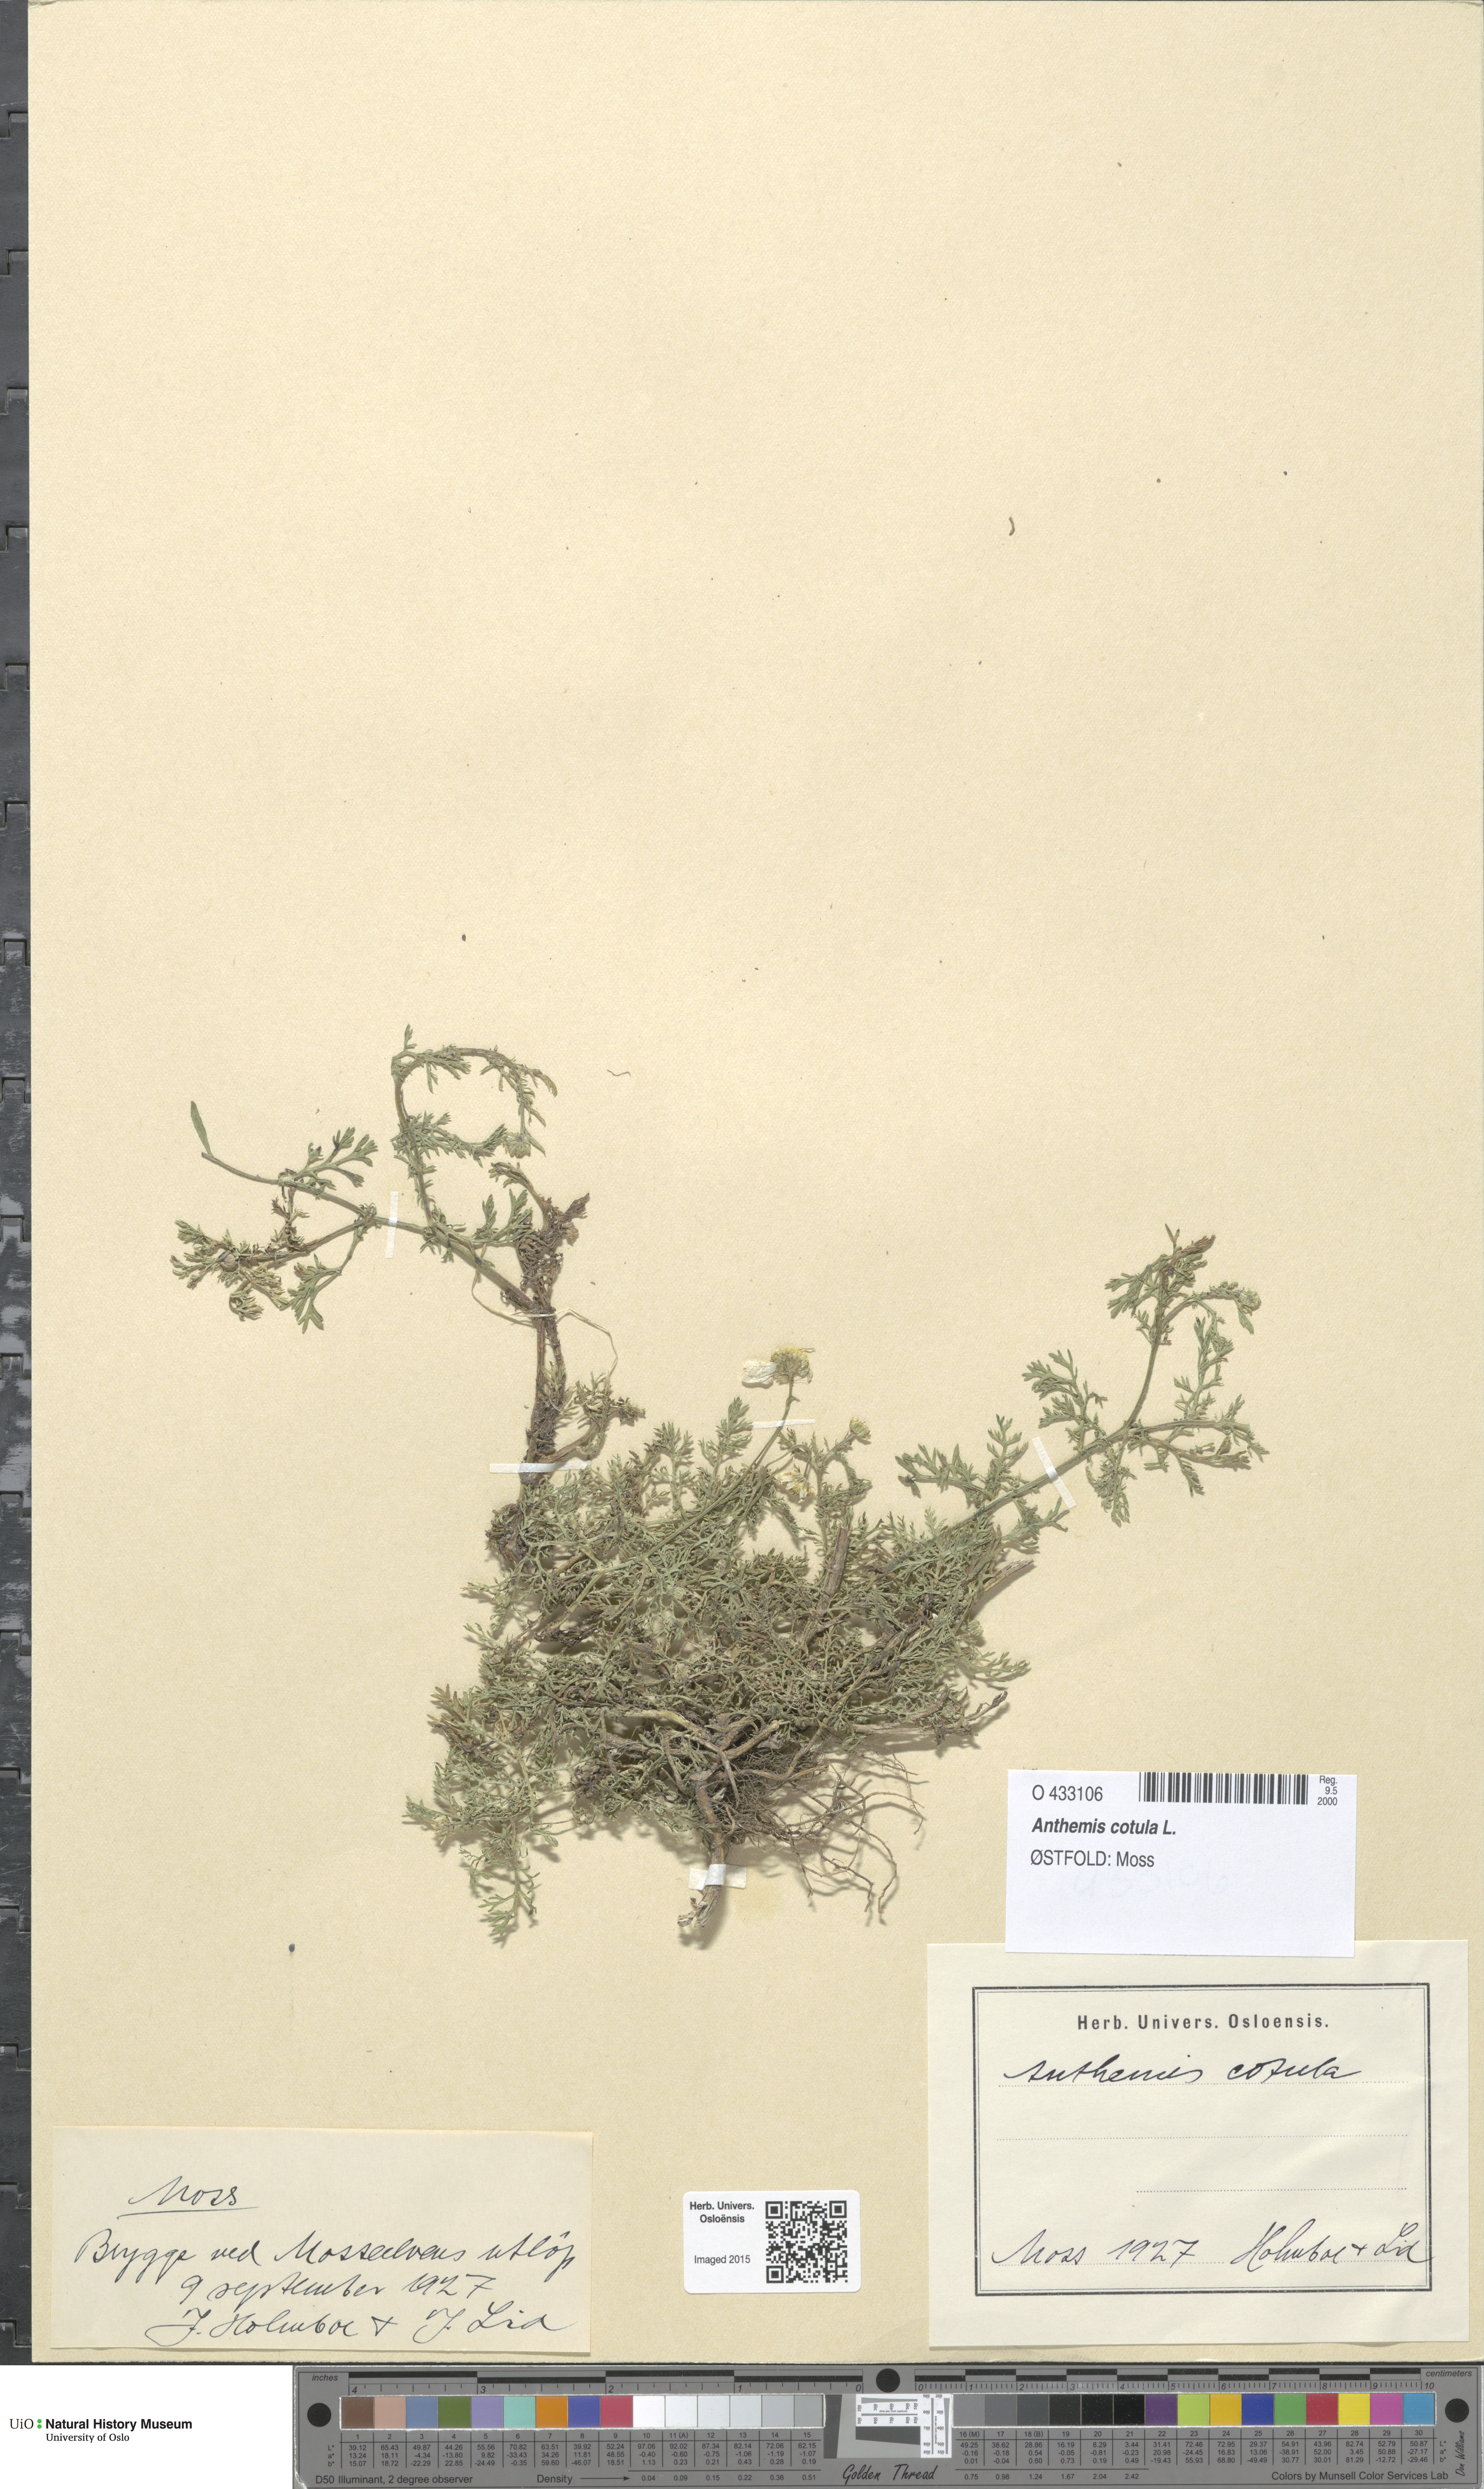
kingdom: Plantae
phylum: Tracheophyta
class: Magnoliopsida
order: Asterales
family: Asteraceae
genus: Anthemis
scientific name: Anthemis cotula
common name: Stinking chamomile
